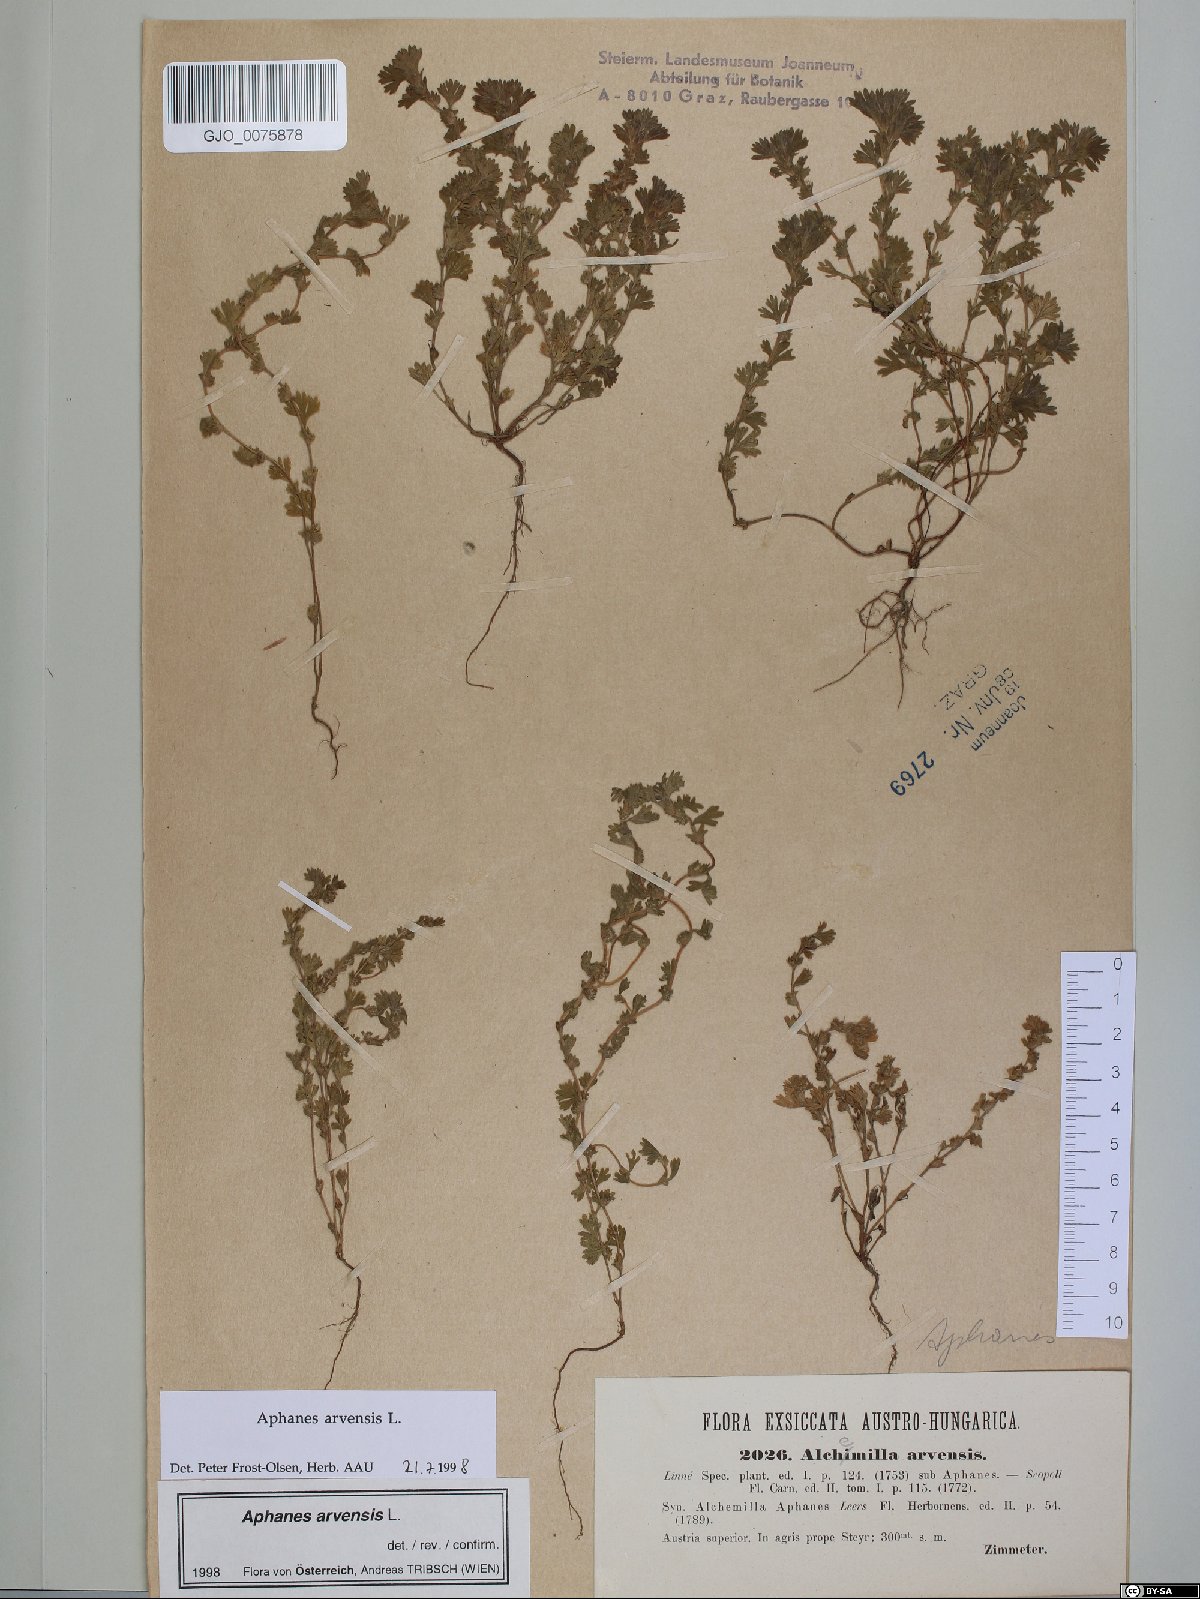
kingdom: Plantae
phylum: Tracheophyta
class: Magnoliopsida
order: Rosales
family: Rosaceae
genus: Aphanes
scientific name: Aphanes arvensis
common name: Parsley-piert
